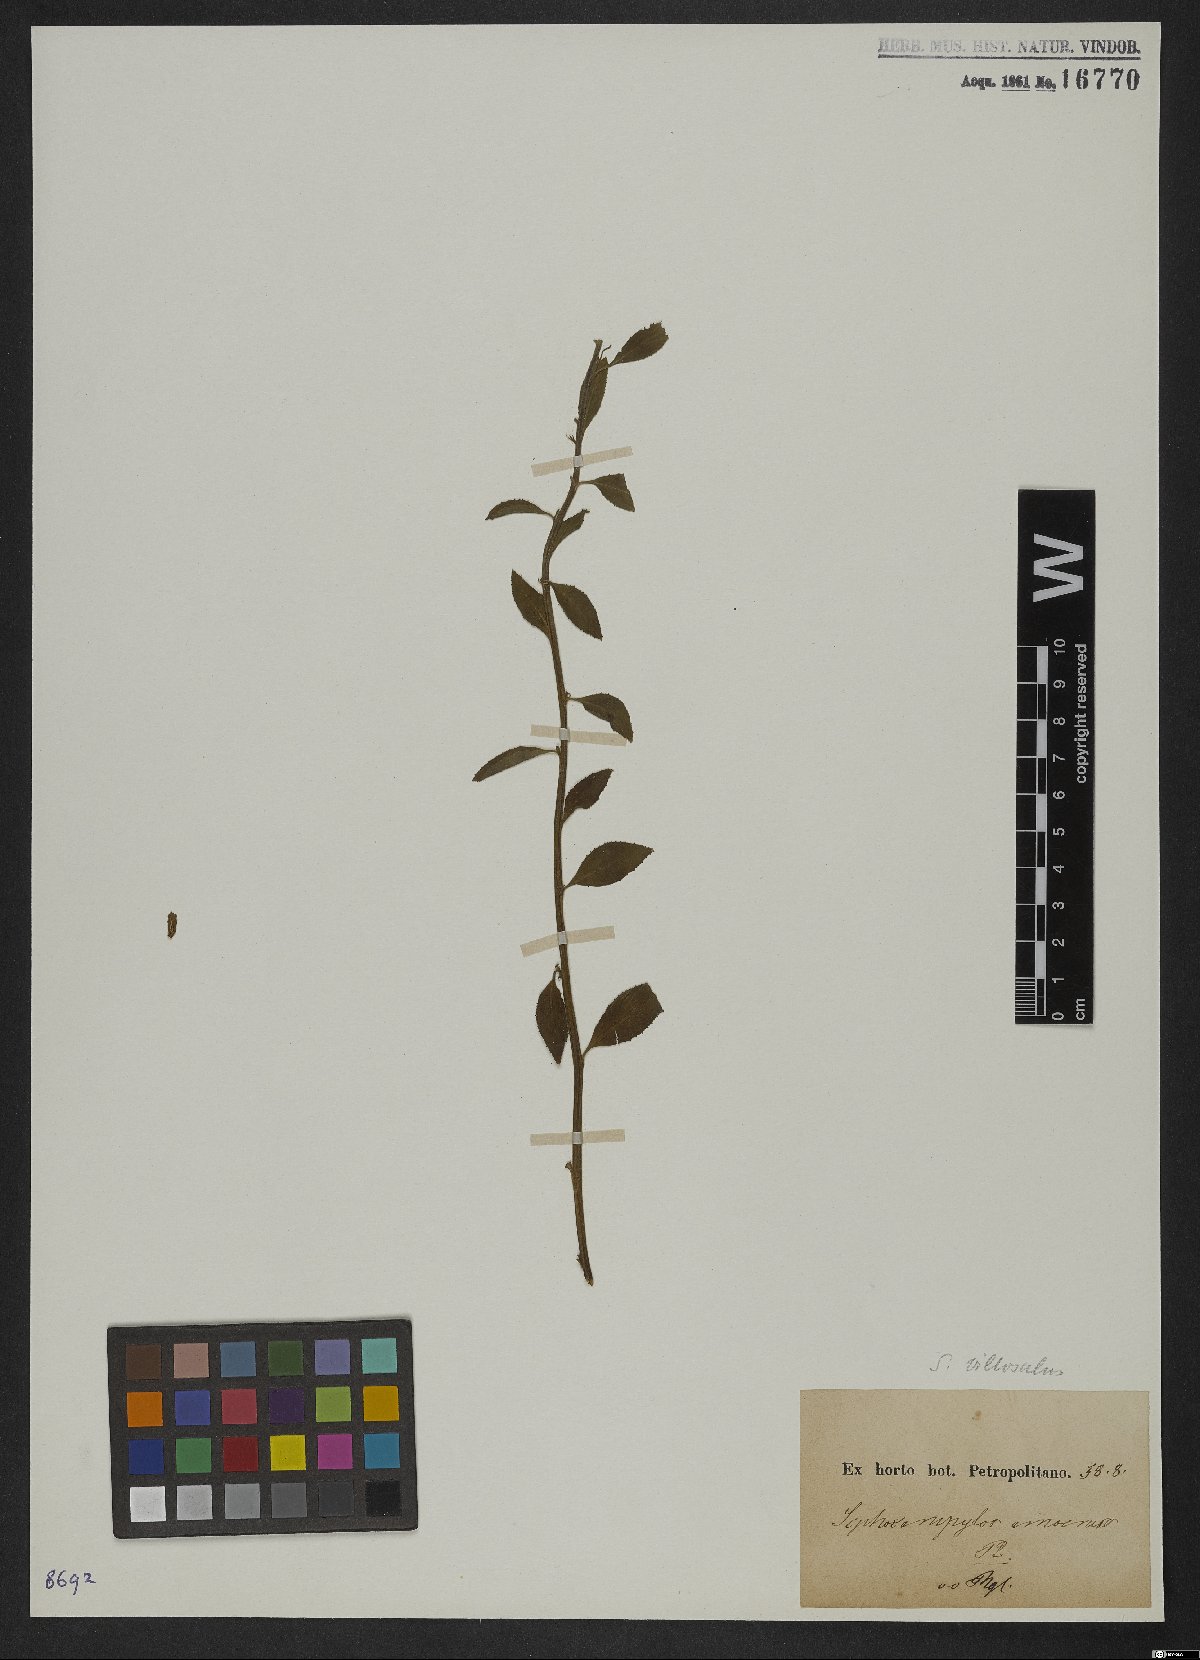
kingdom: Plantae
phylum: Tracheophyta
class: Magnoliopsida
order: Asterales
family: Campanulaceae
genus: Siphocampylus
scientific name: Siphocampylus macropodus
